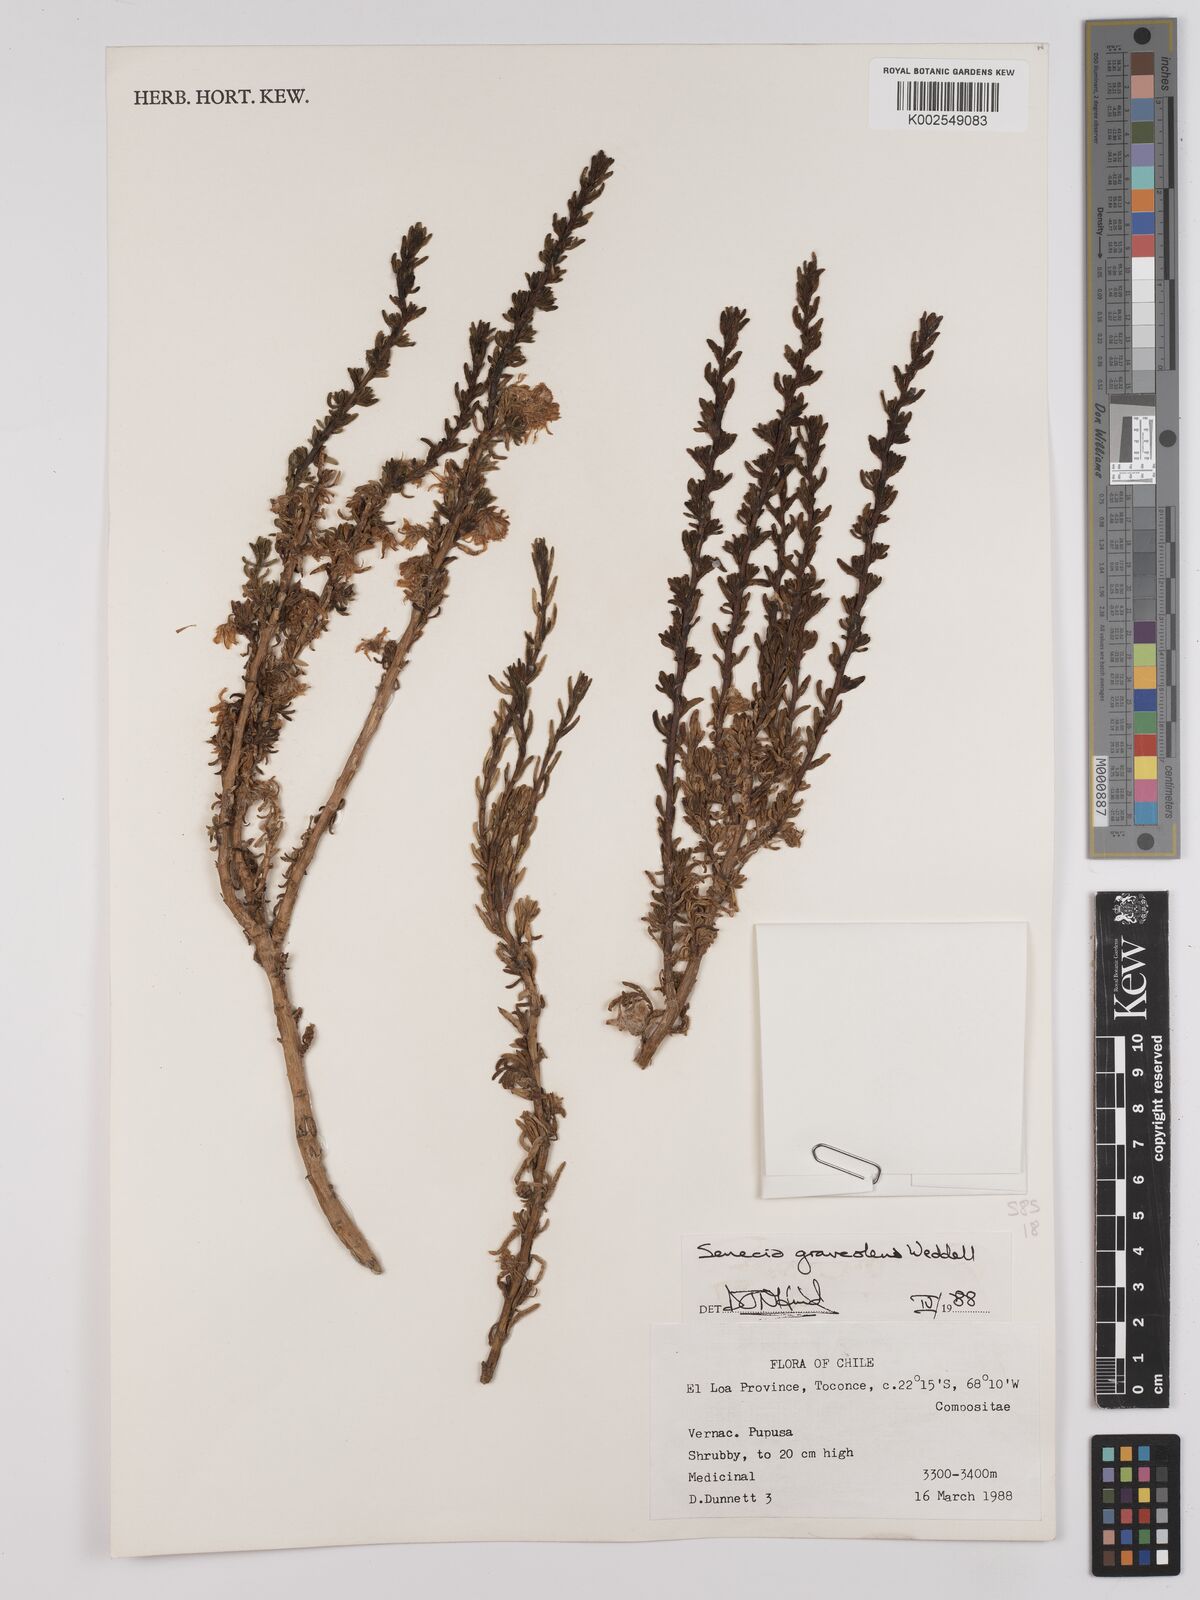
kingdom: Plantae
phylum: Tracheophyta
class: Magnoliopsida
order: Asterales
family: Asteraceae
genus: Senecio
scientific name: Senecio nutans
